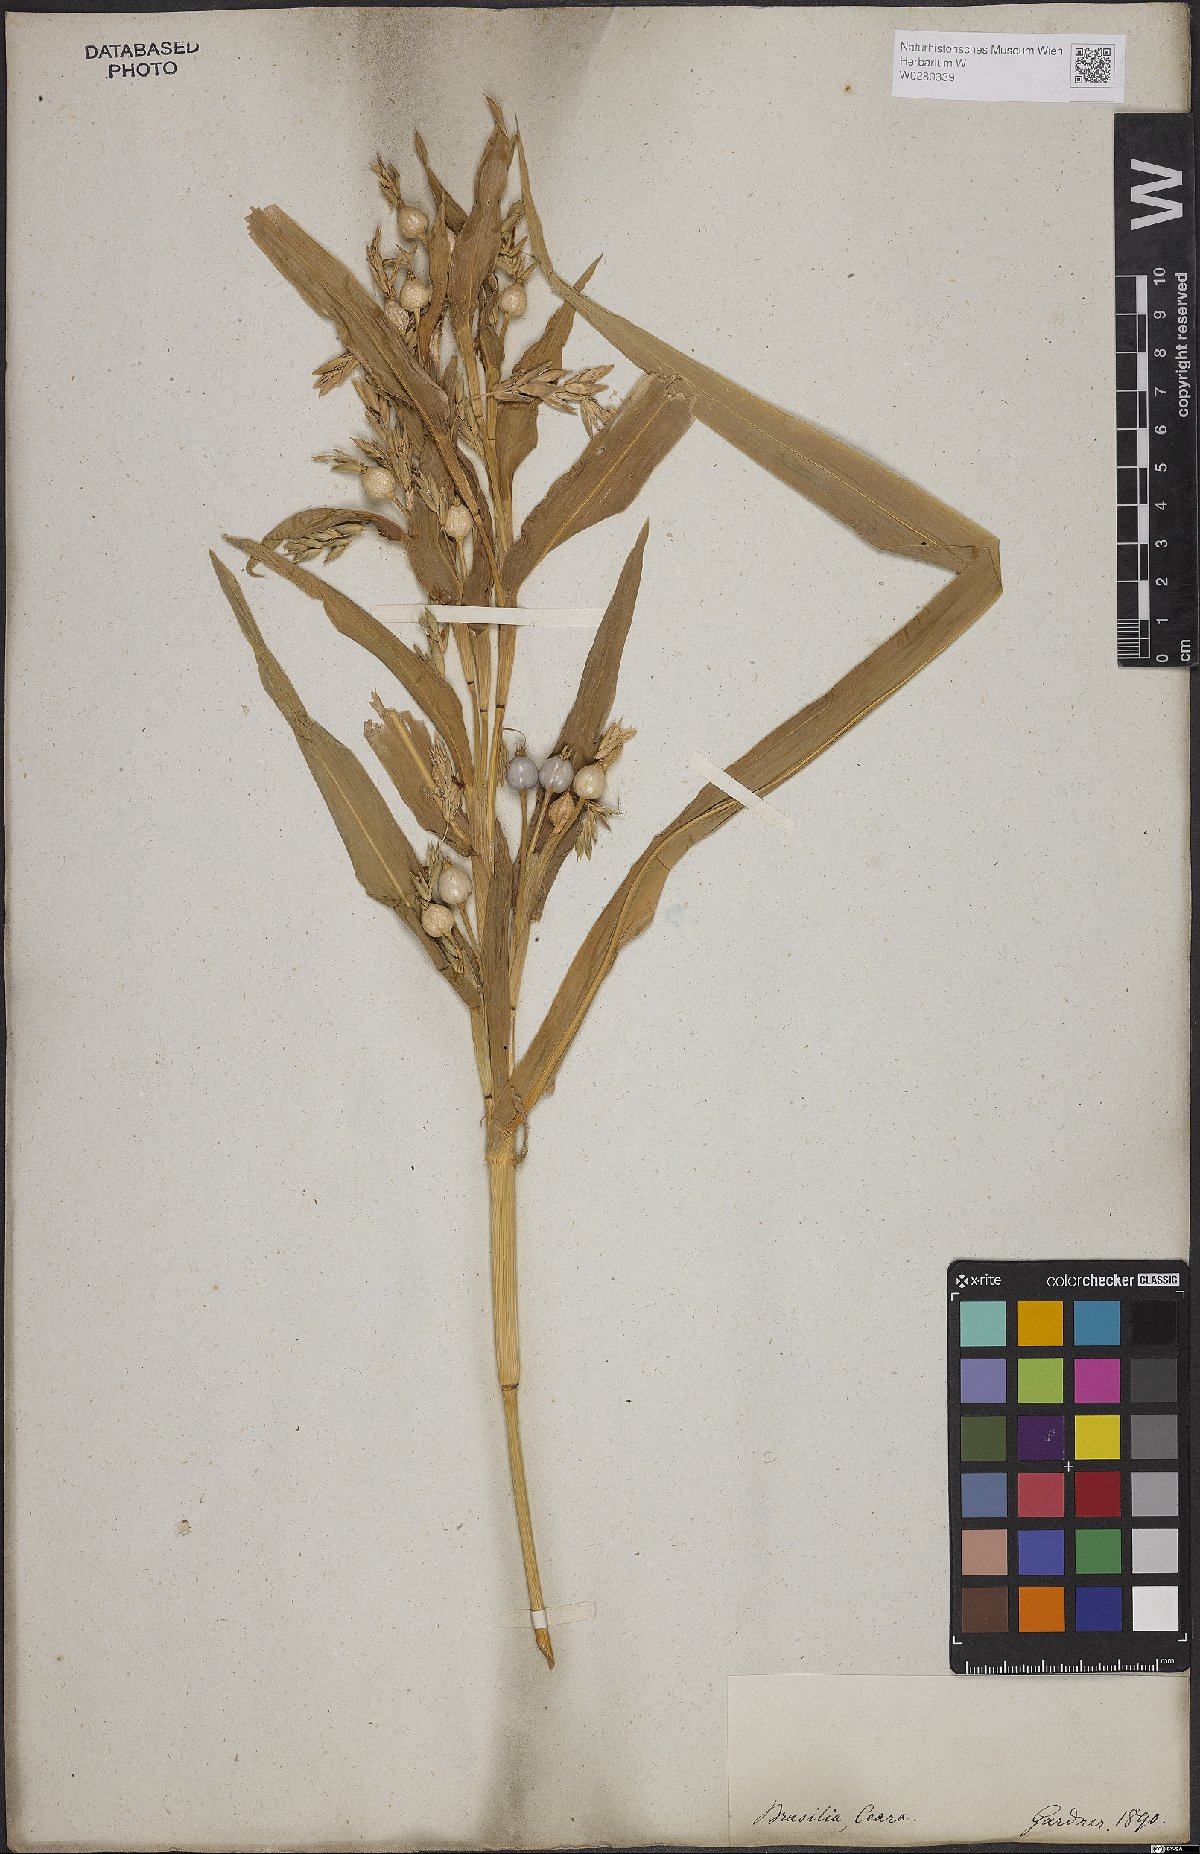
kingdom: Plantae
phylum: Tracheophyta
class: Liliopsida
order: Poales
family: Poaceae
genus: Coix
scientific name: Coix lacryma-jobi
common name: Job's tears
